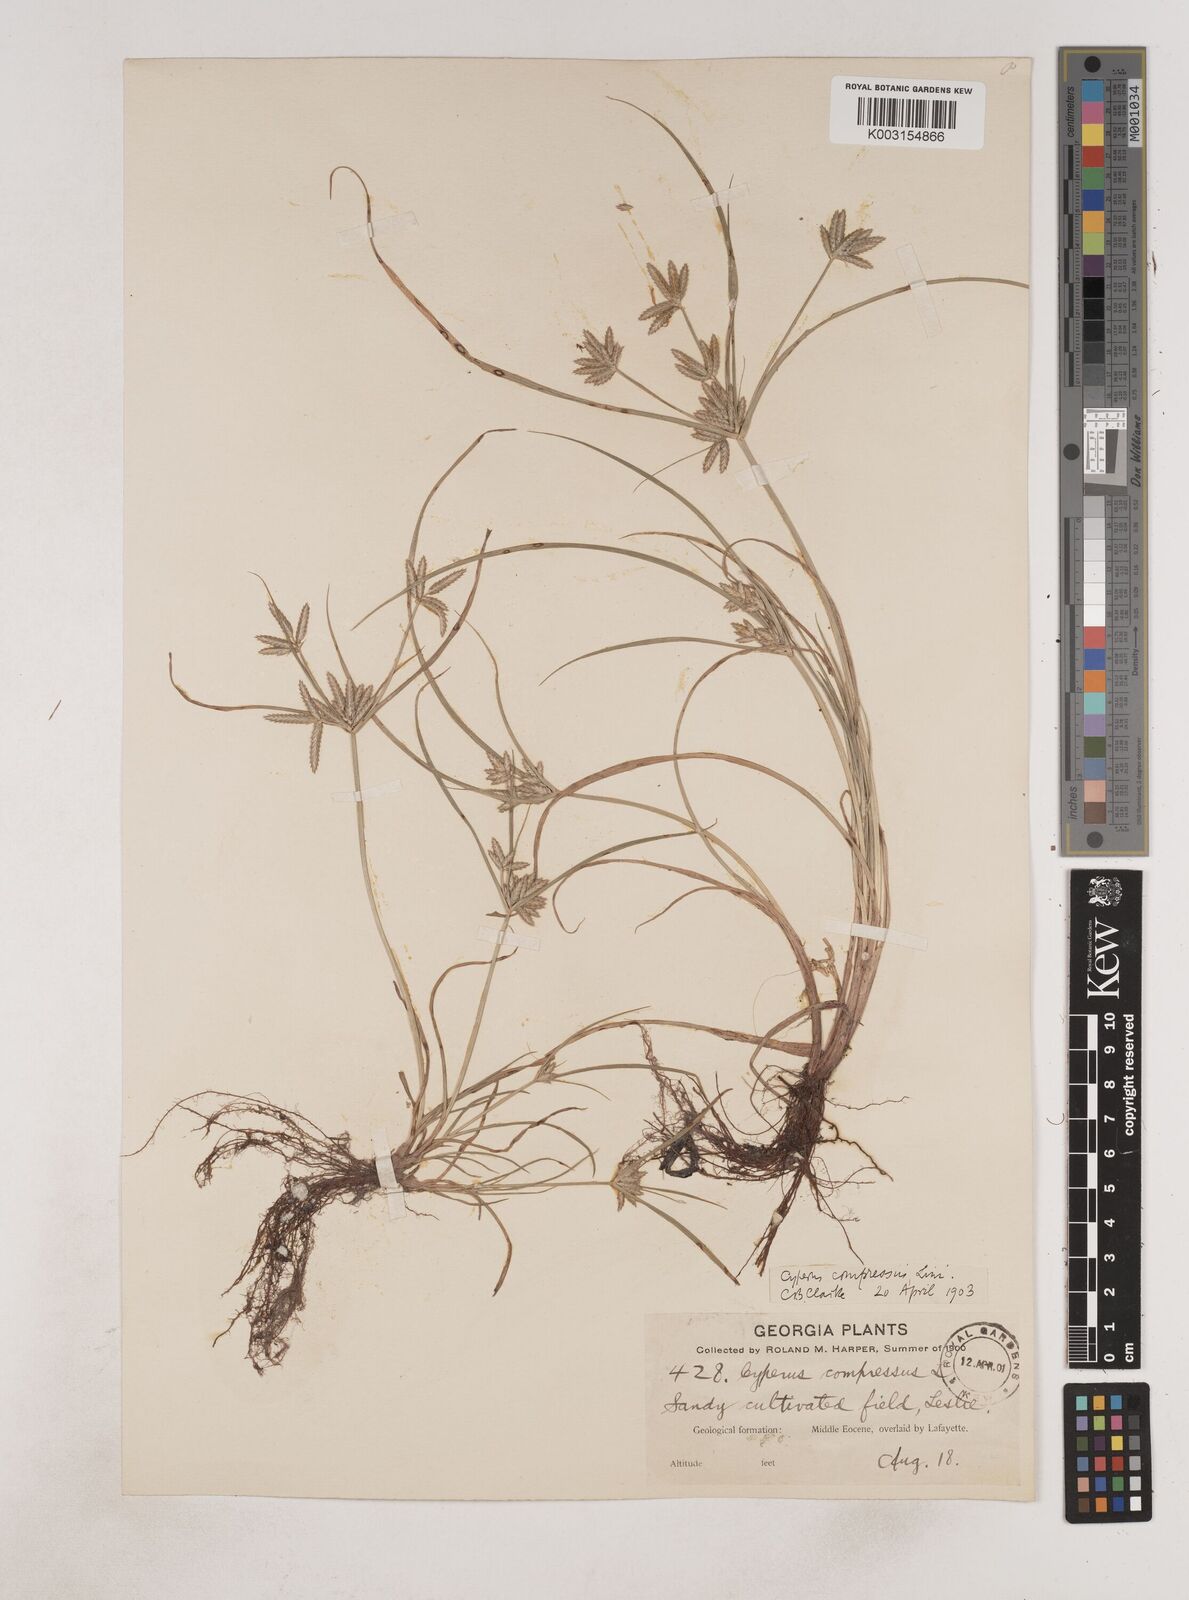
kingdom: Plantae
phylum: Tracheophyta
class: Liliopsida
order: Poales
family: Cyperaceae
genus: Cyperus
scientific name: Cyperus compressus
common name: Poorland flatsedge
